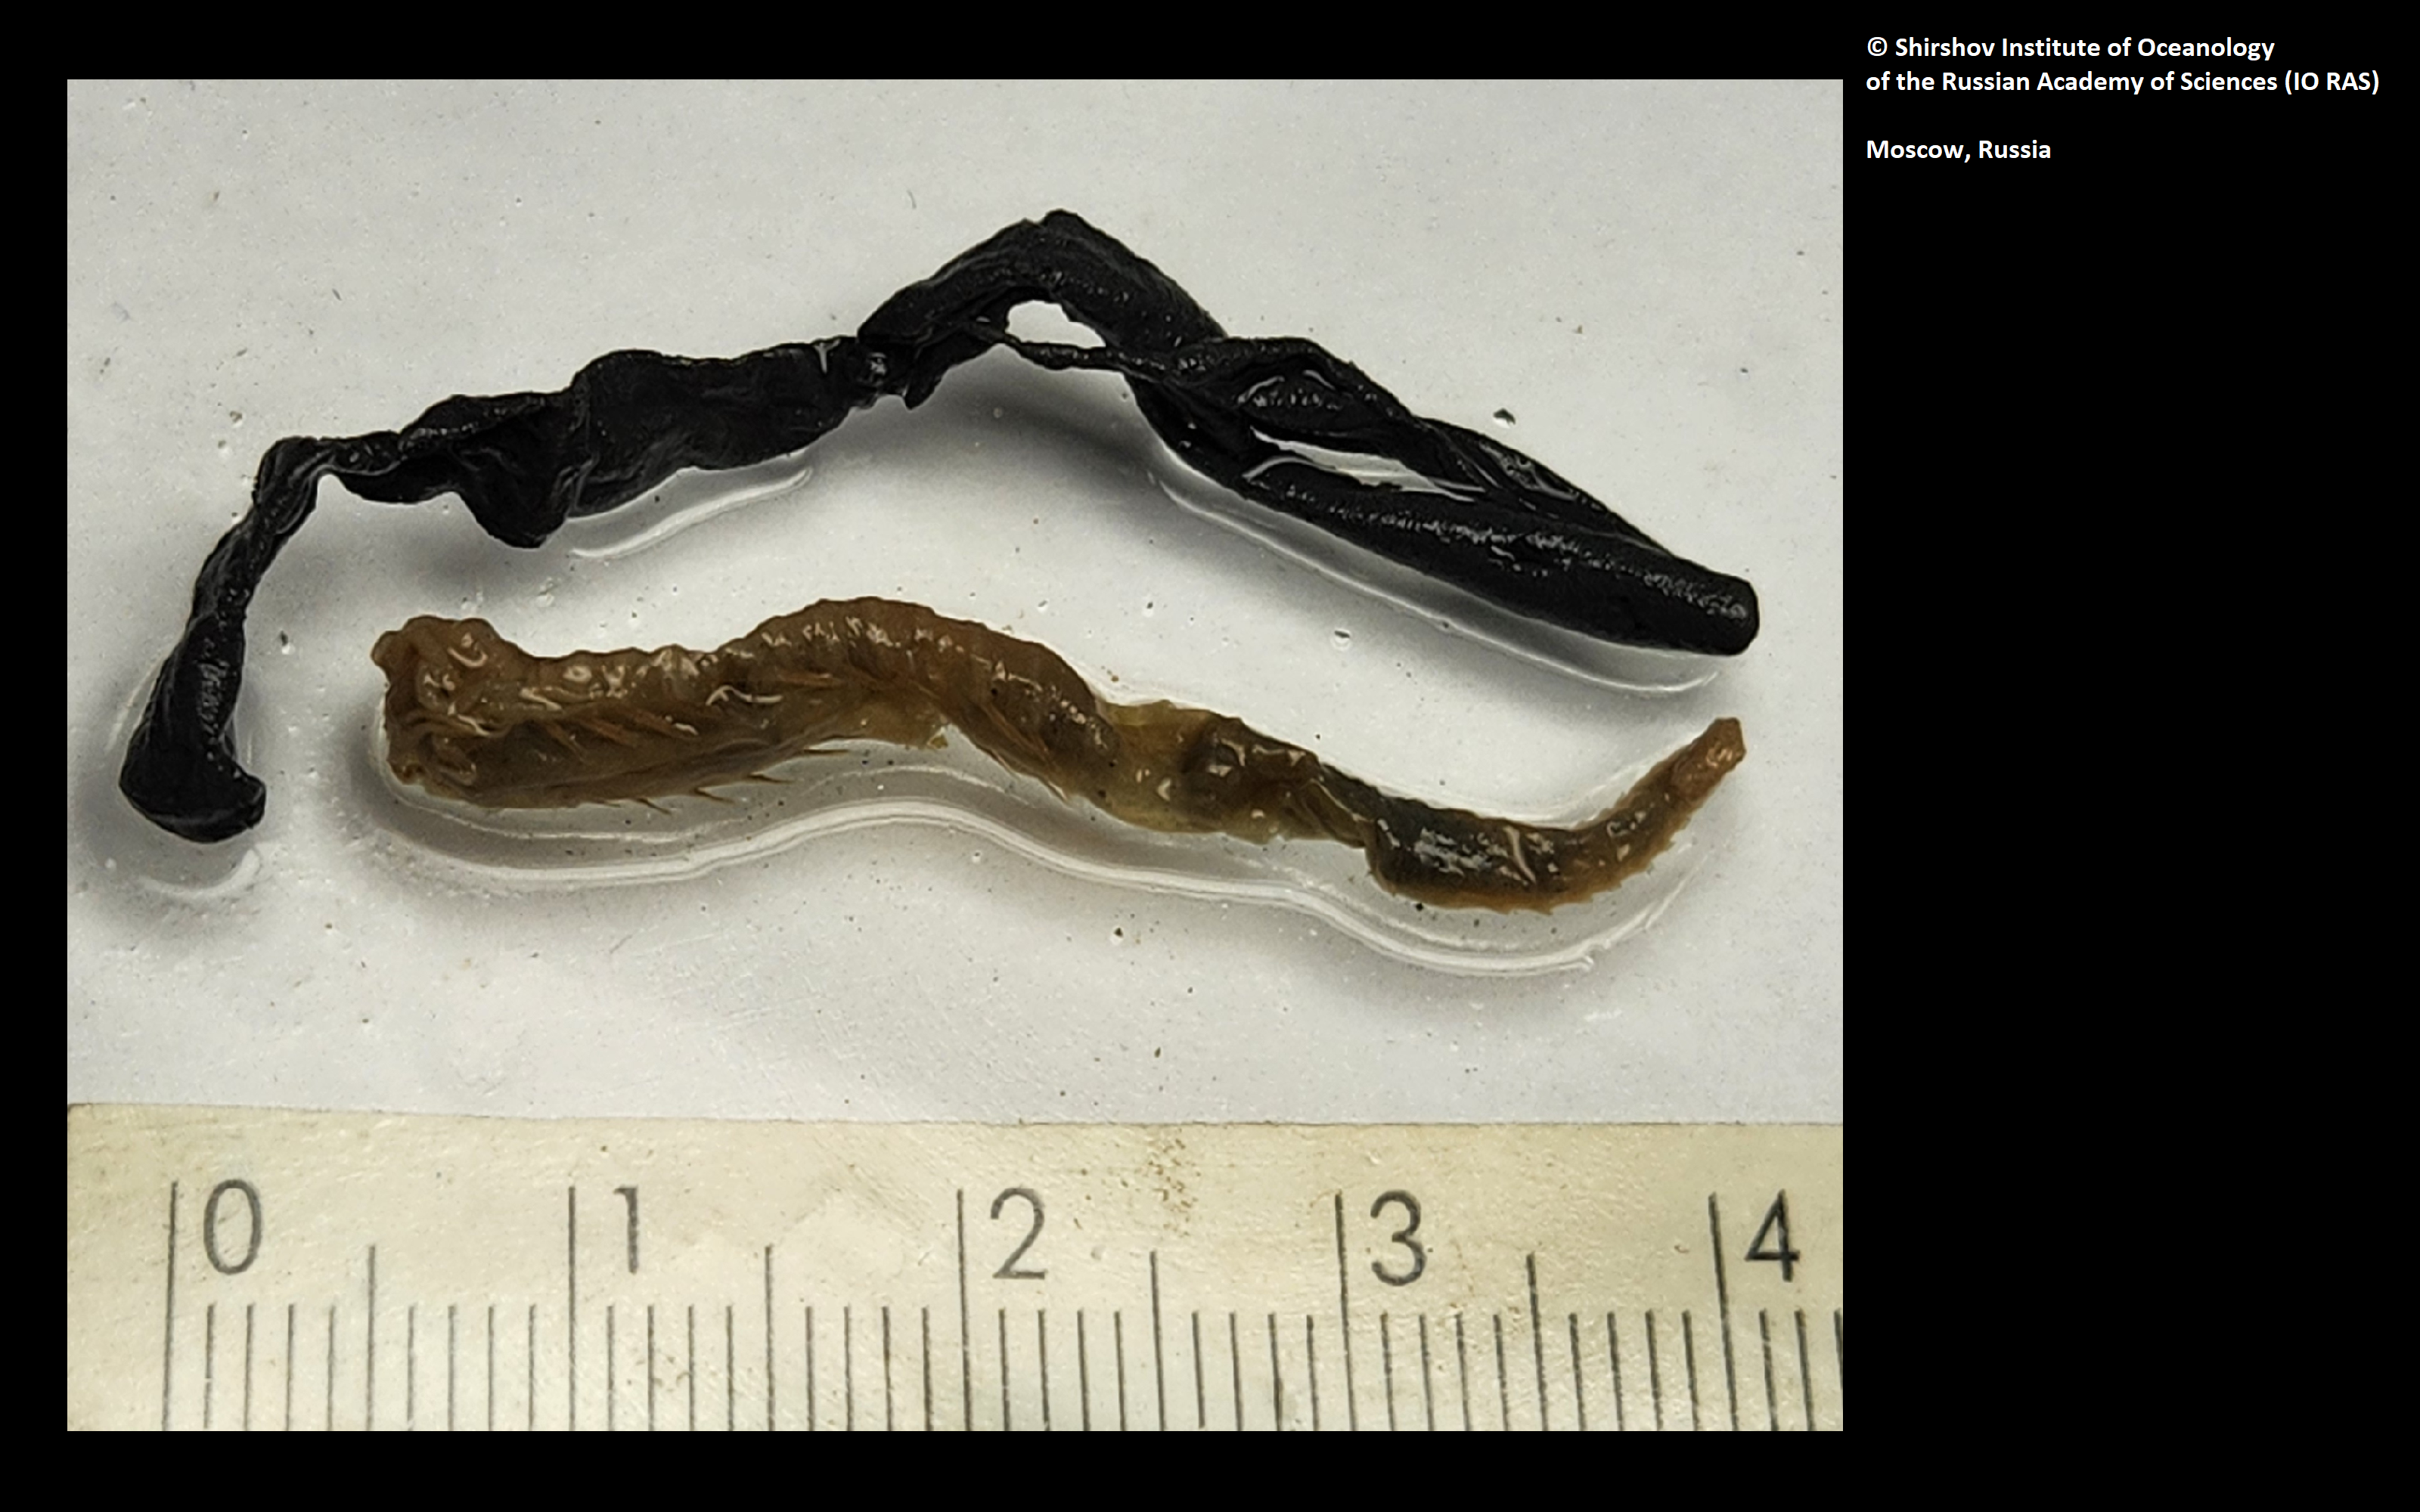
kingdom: Animalia
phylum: Annelida
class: Polychaeta
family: Ampharetidae
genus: Grubianella
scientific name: Grubianella cirratus
